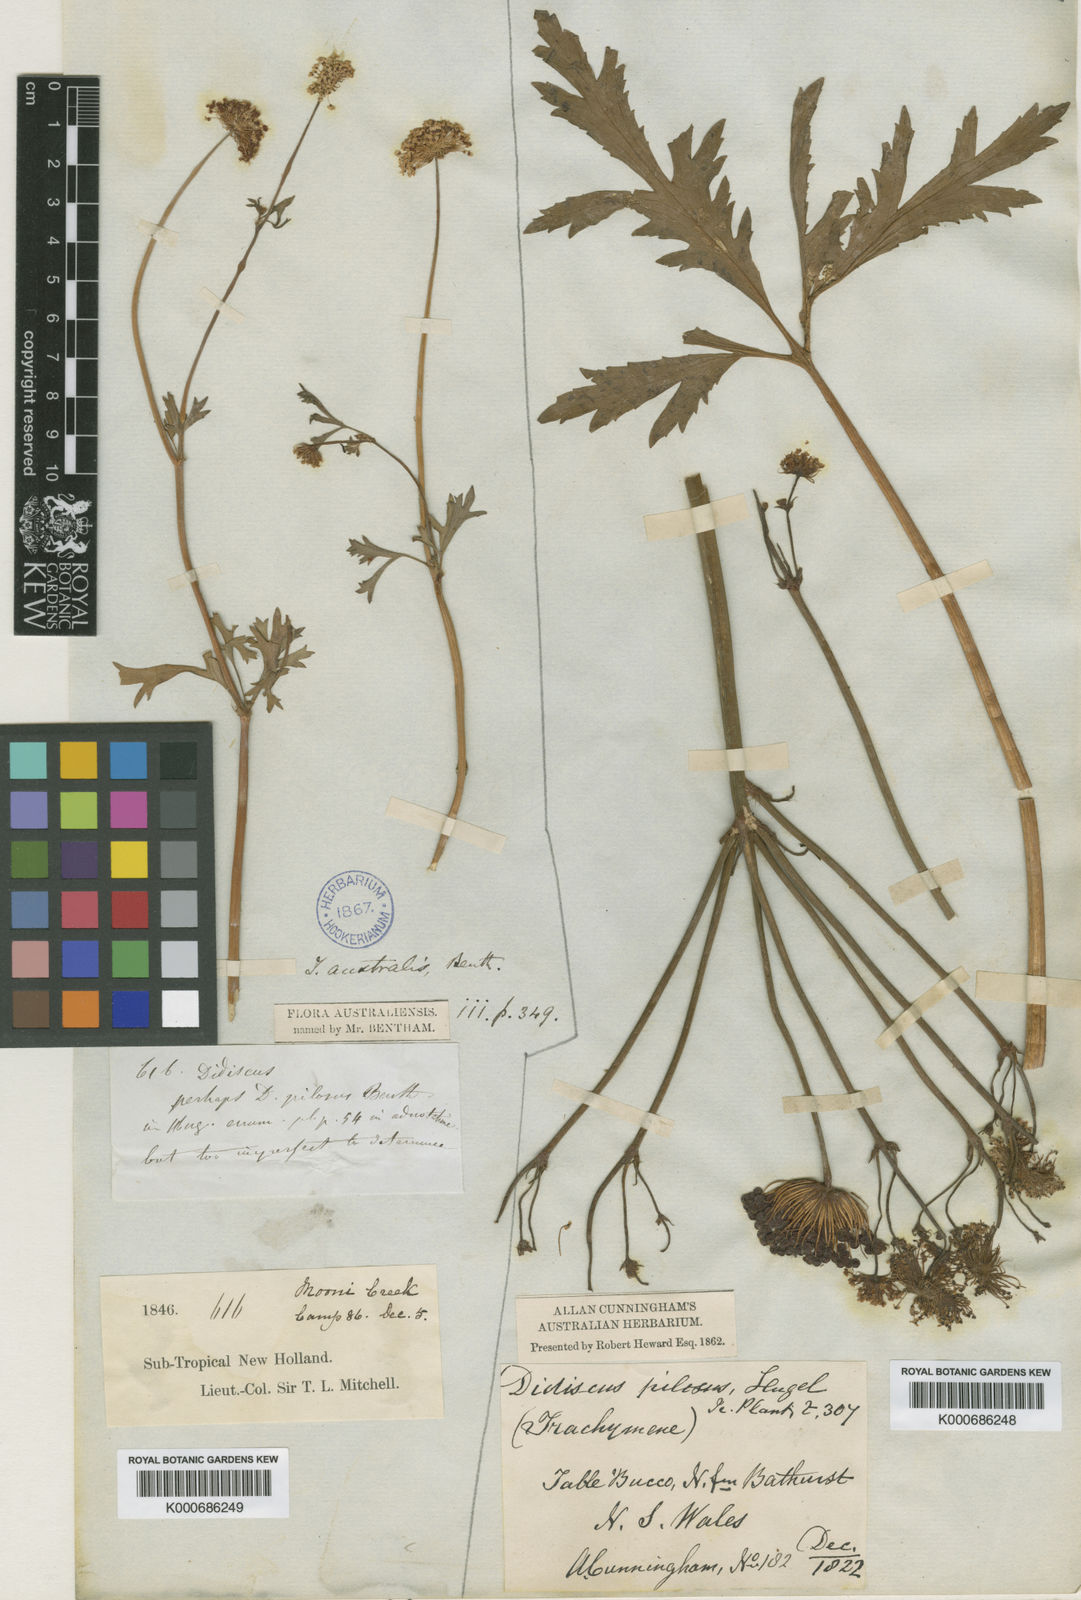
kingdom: Plantae
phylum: Tracheophyta
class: Magnoliopsida
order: Apiales
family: Araliaceae
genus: Trachymene
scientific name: Trachymene composita
